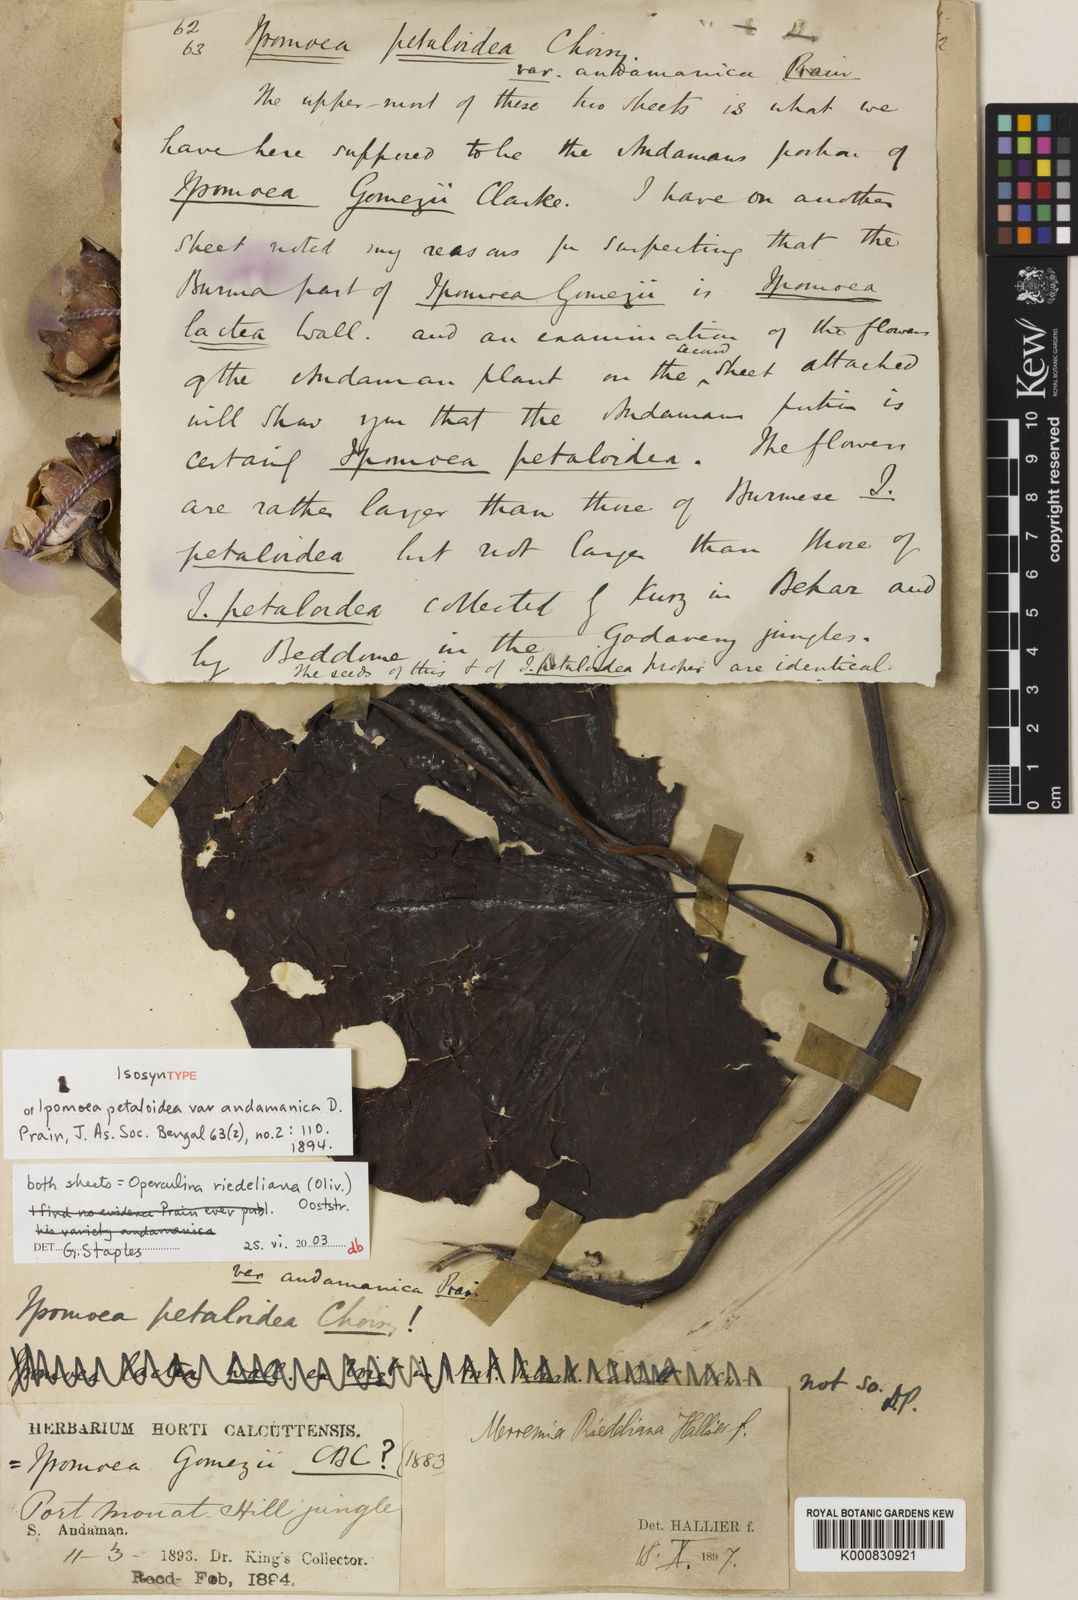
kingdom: Plantae
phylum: Tracheophyta
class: Magnoliopsida
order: Solanales
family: Convolvulaceae
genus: Operculina
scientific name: Operculina riedeliana
